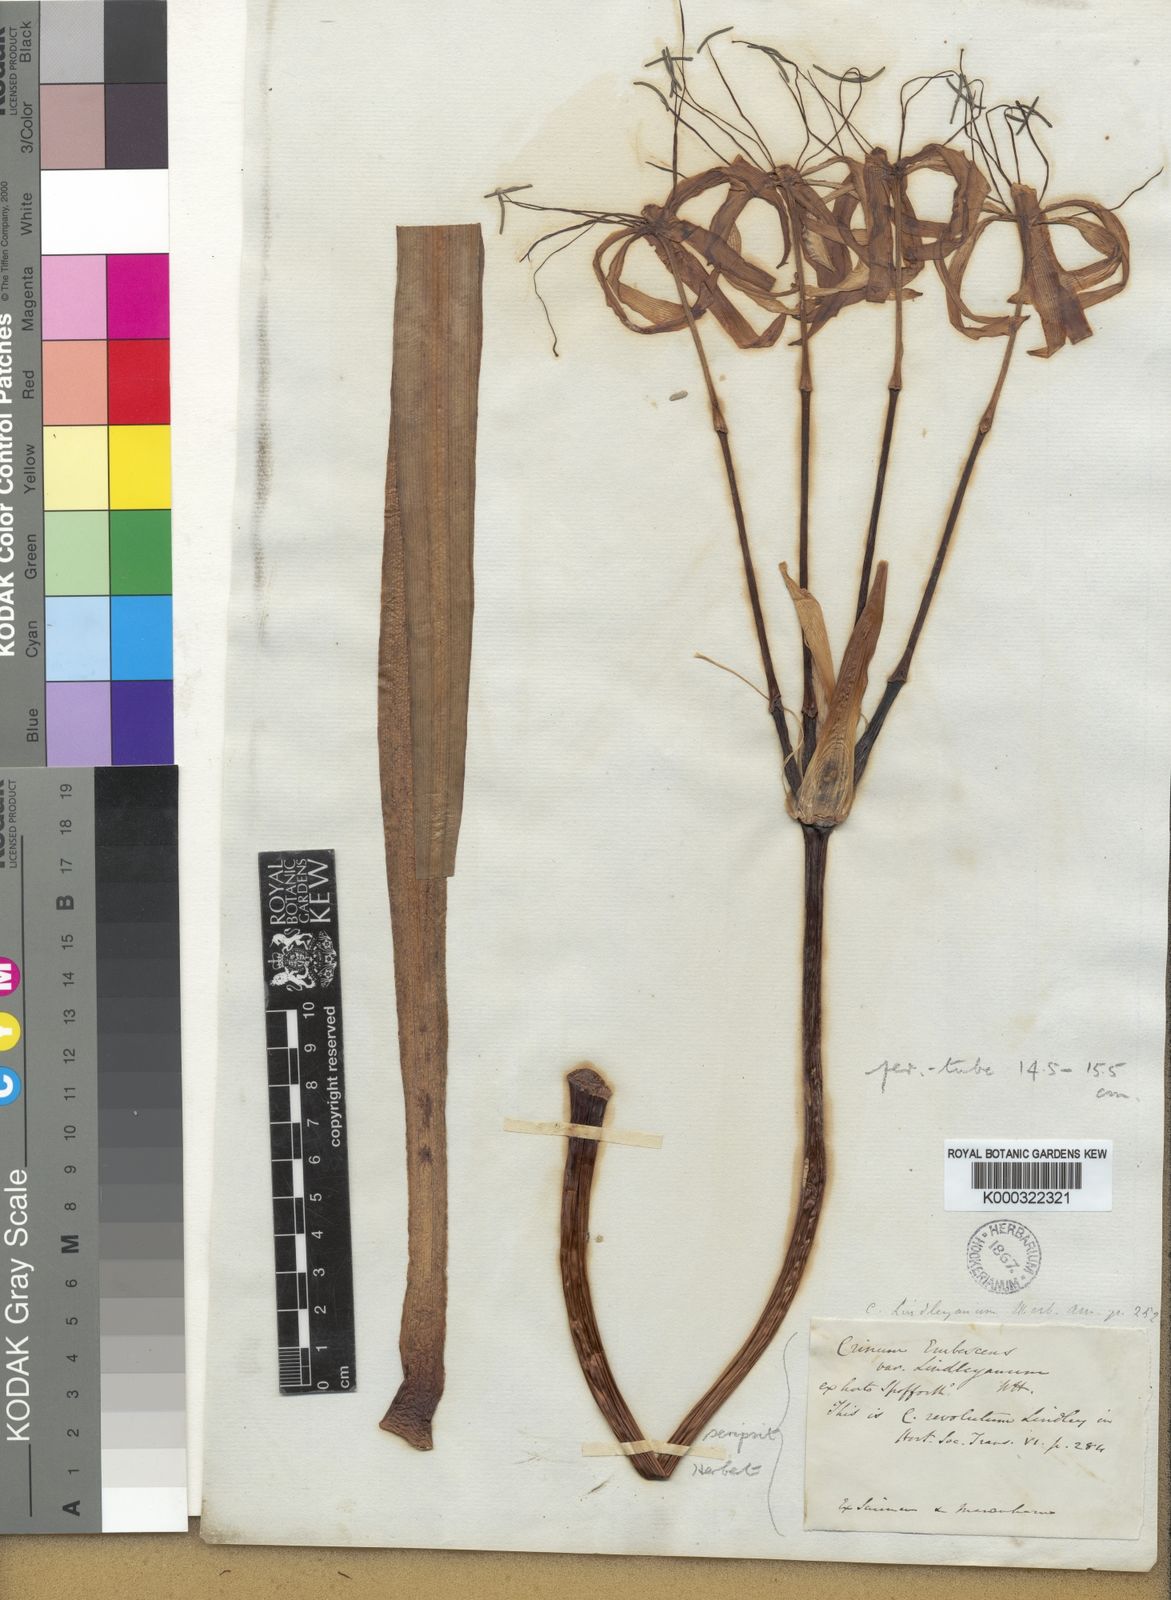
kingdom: Plantae
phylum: Tracheophyta
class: Liliopsida
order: Asparagales
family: Amaryllidaceae
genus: Crinum
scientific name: Crinum erubescens
